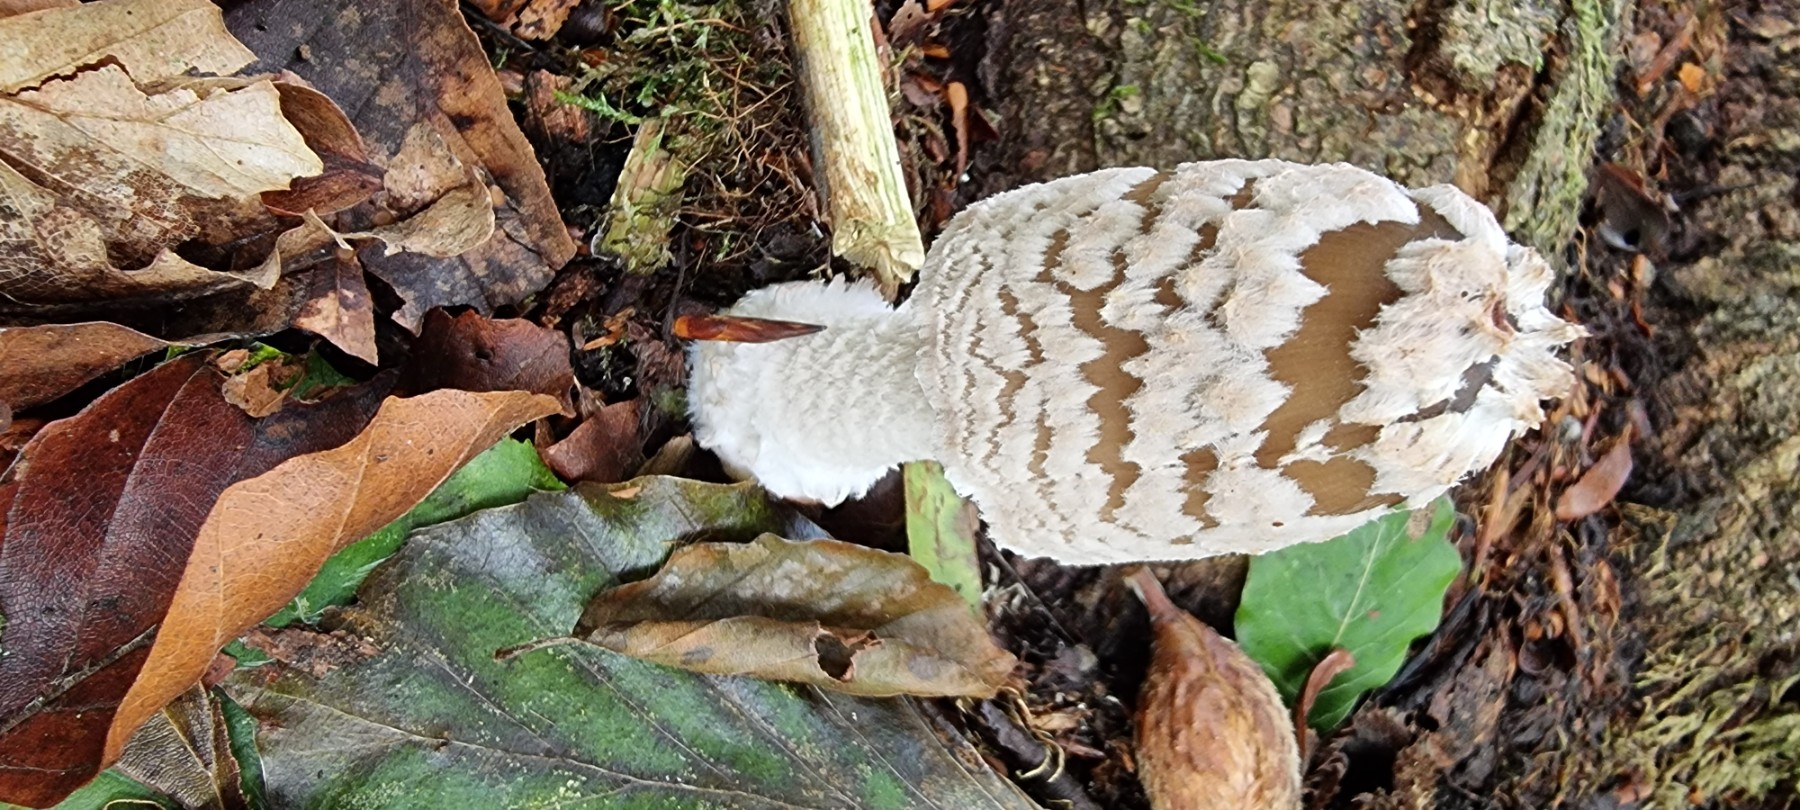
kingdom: Fungi
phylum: Basidiomycota
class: Agaricomycetes
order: Agaricales
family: Psathyrellaceae
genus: Coprinopsis
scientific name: Coprinopsis picacea
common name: skade-blækhat
